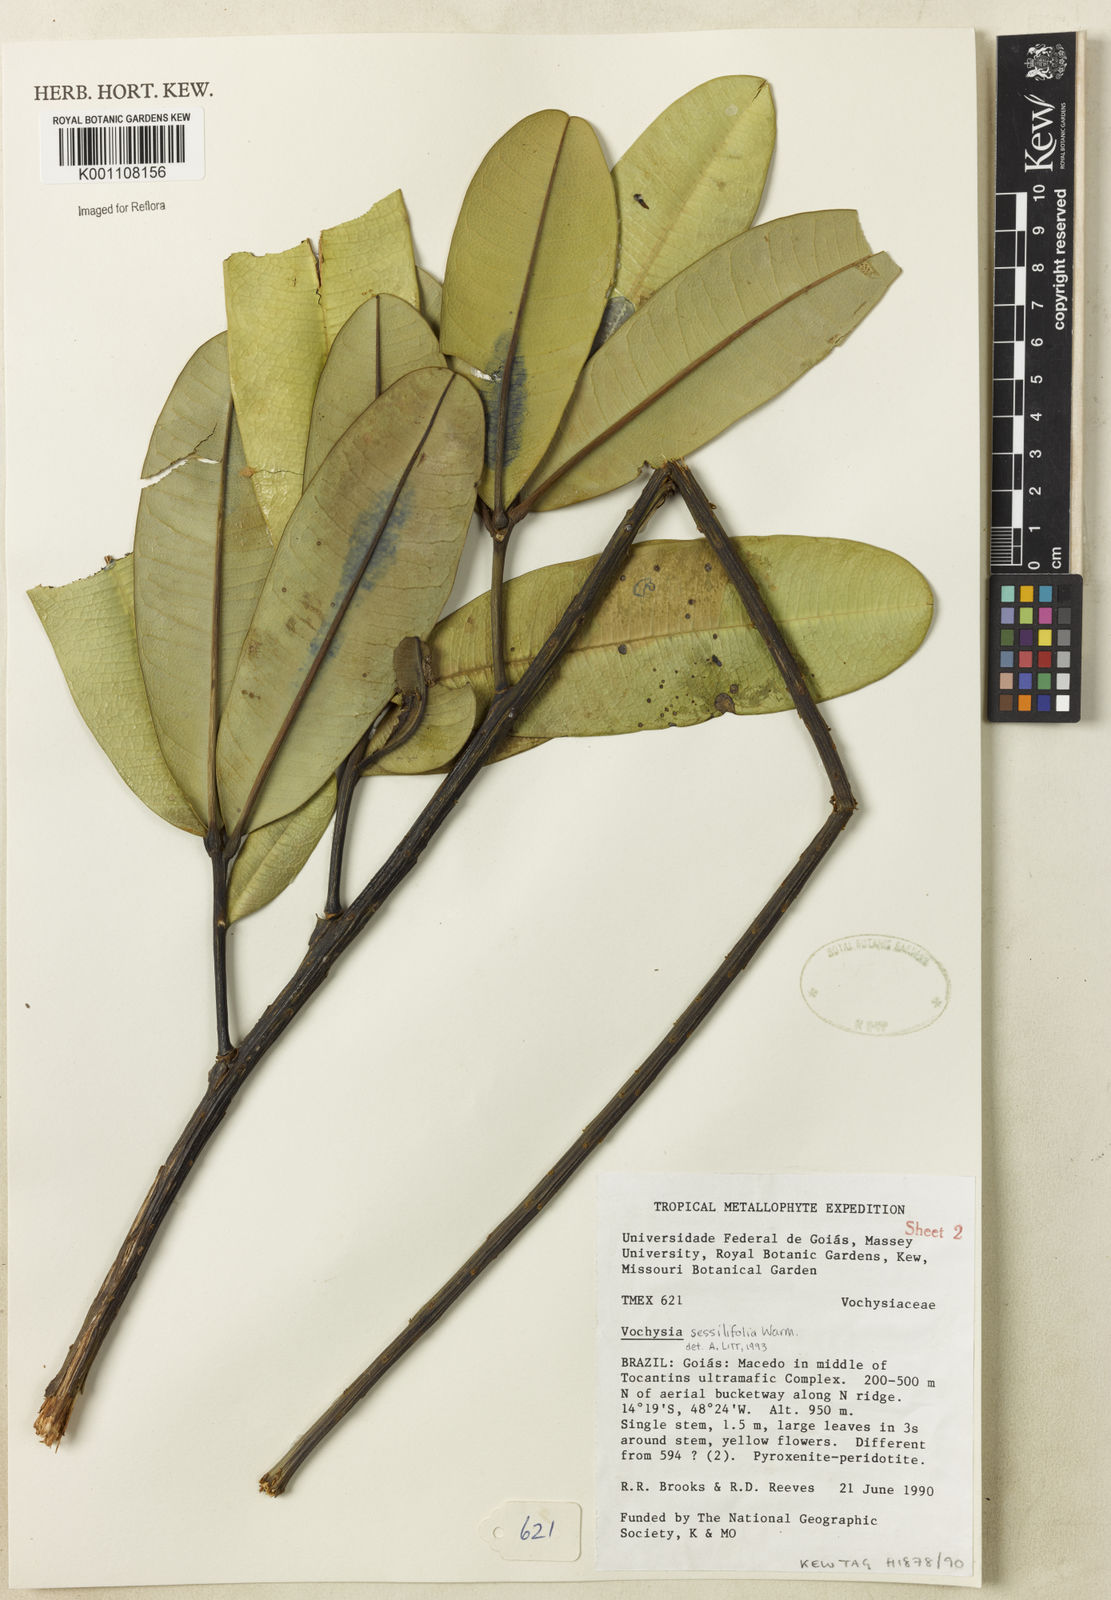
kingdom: Plantae
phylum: Tracheophyta
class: Magnoliopsida
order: Myrtales
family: Vochysiaceae
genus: Vochysia
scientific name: Vochysia sessilifolia
